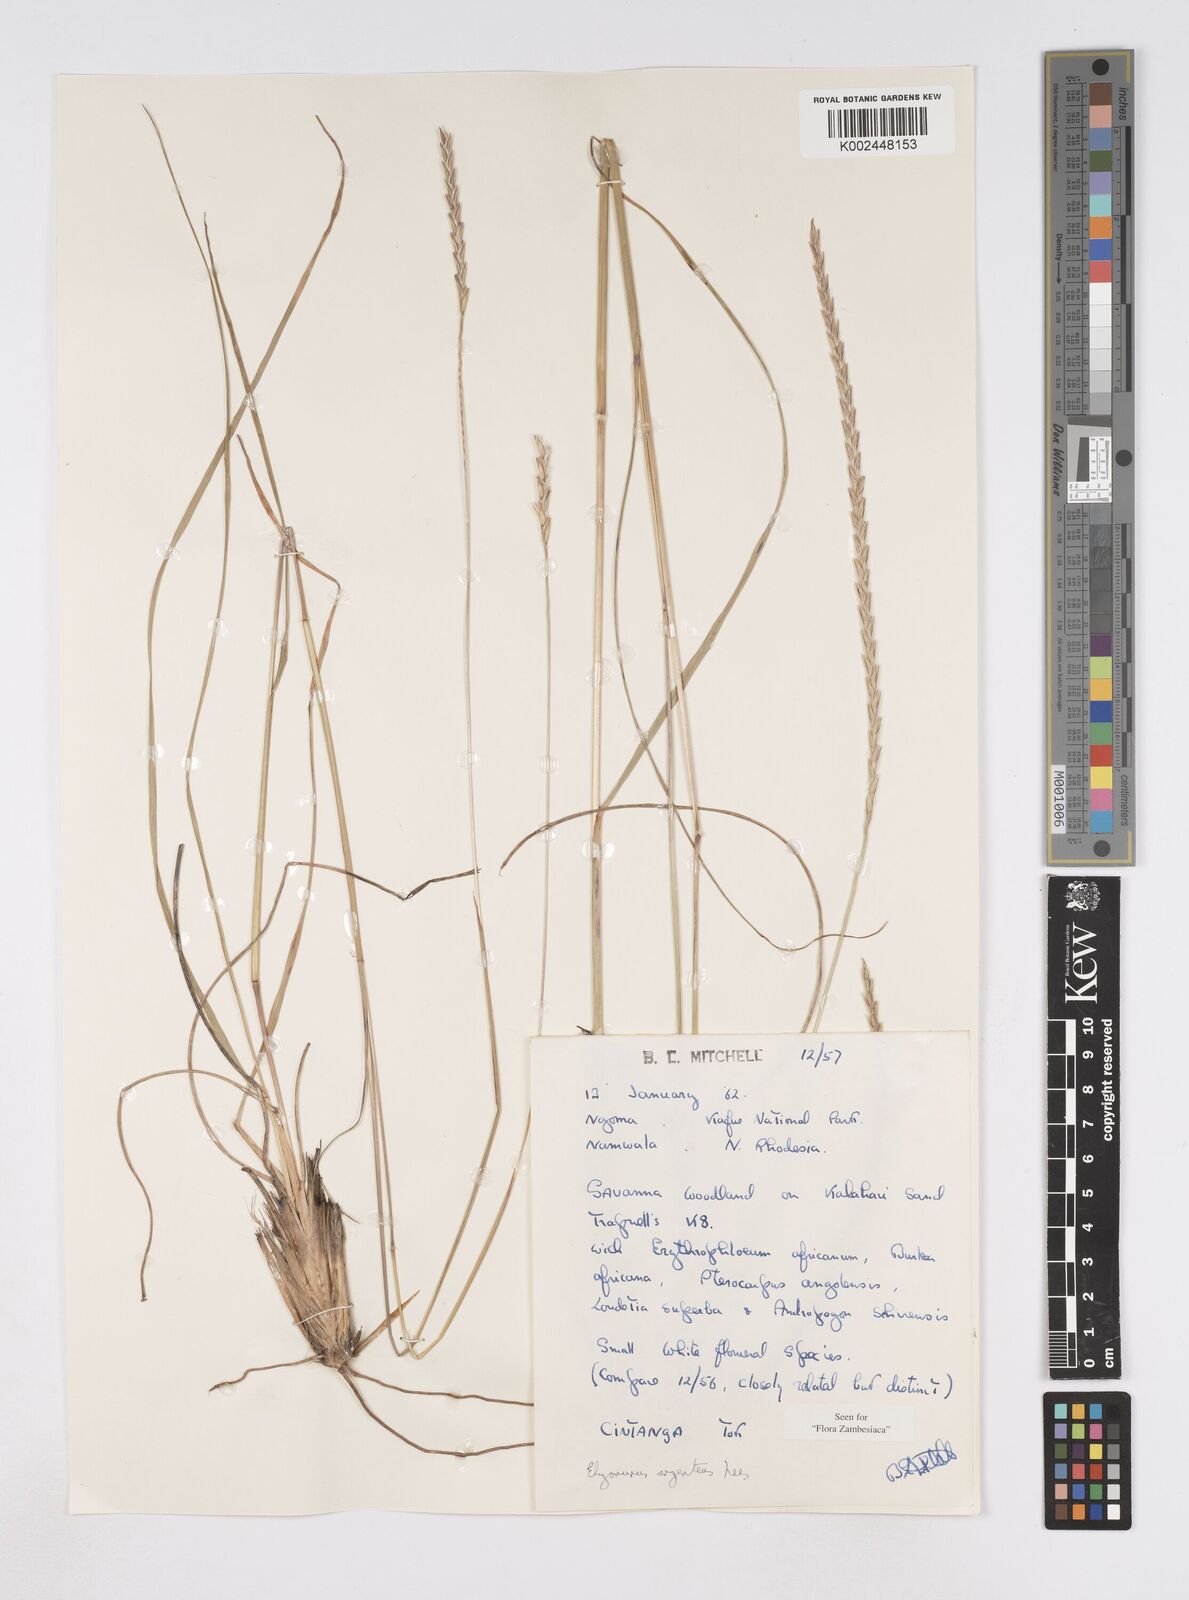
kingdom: Plantae
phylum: Tracheophyta
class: Liliopsida
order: Poales
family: Poaceae
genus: Elionurus
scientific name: Elionurus tripsacoides
